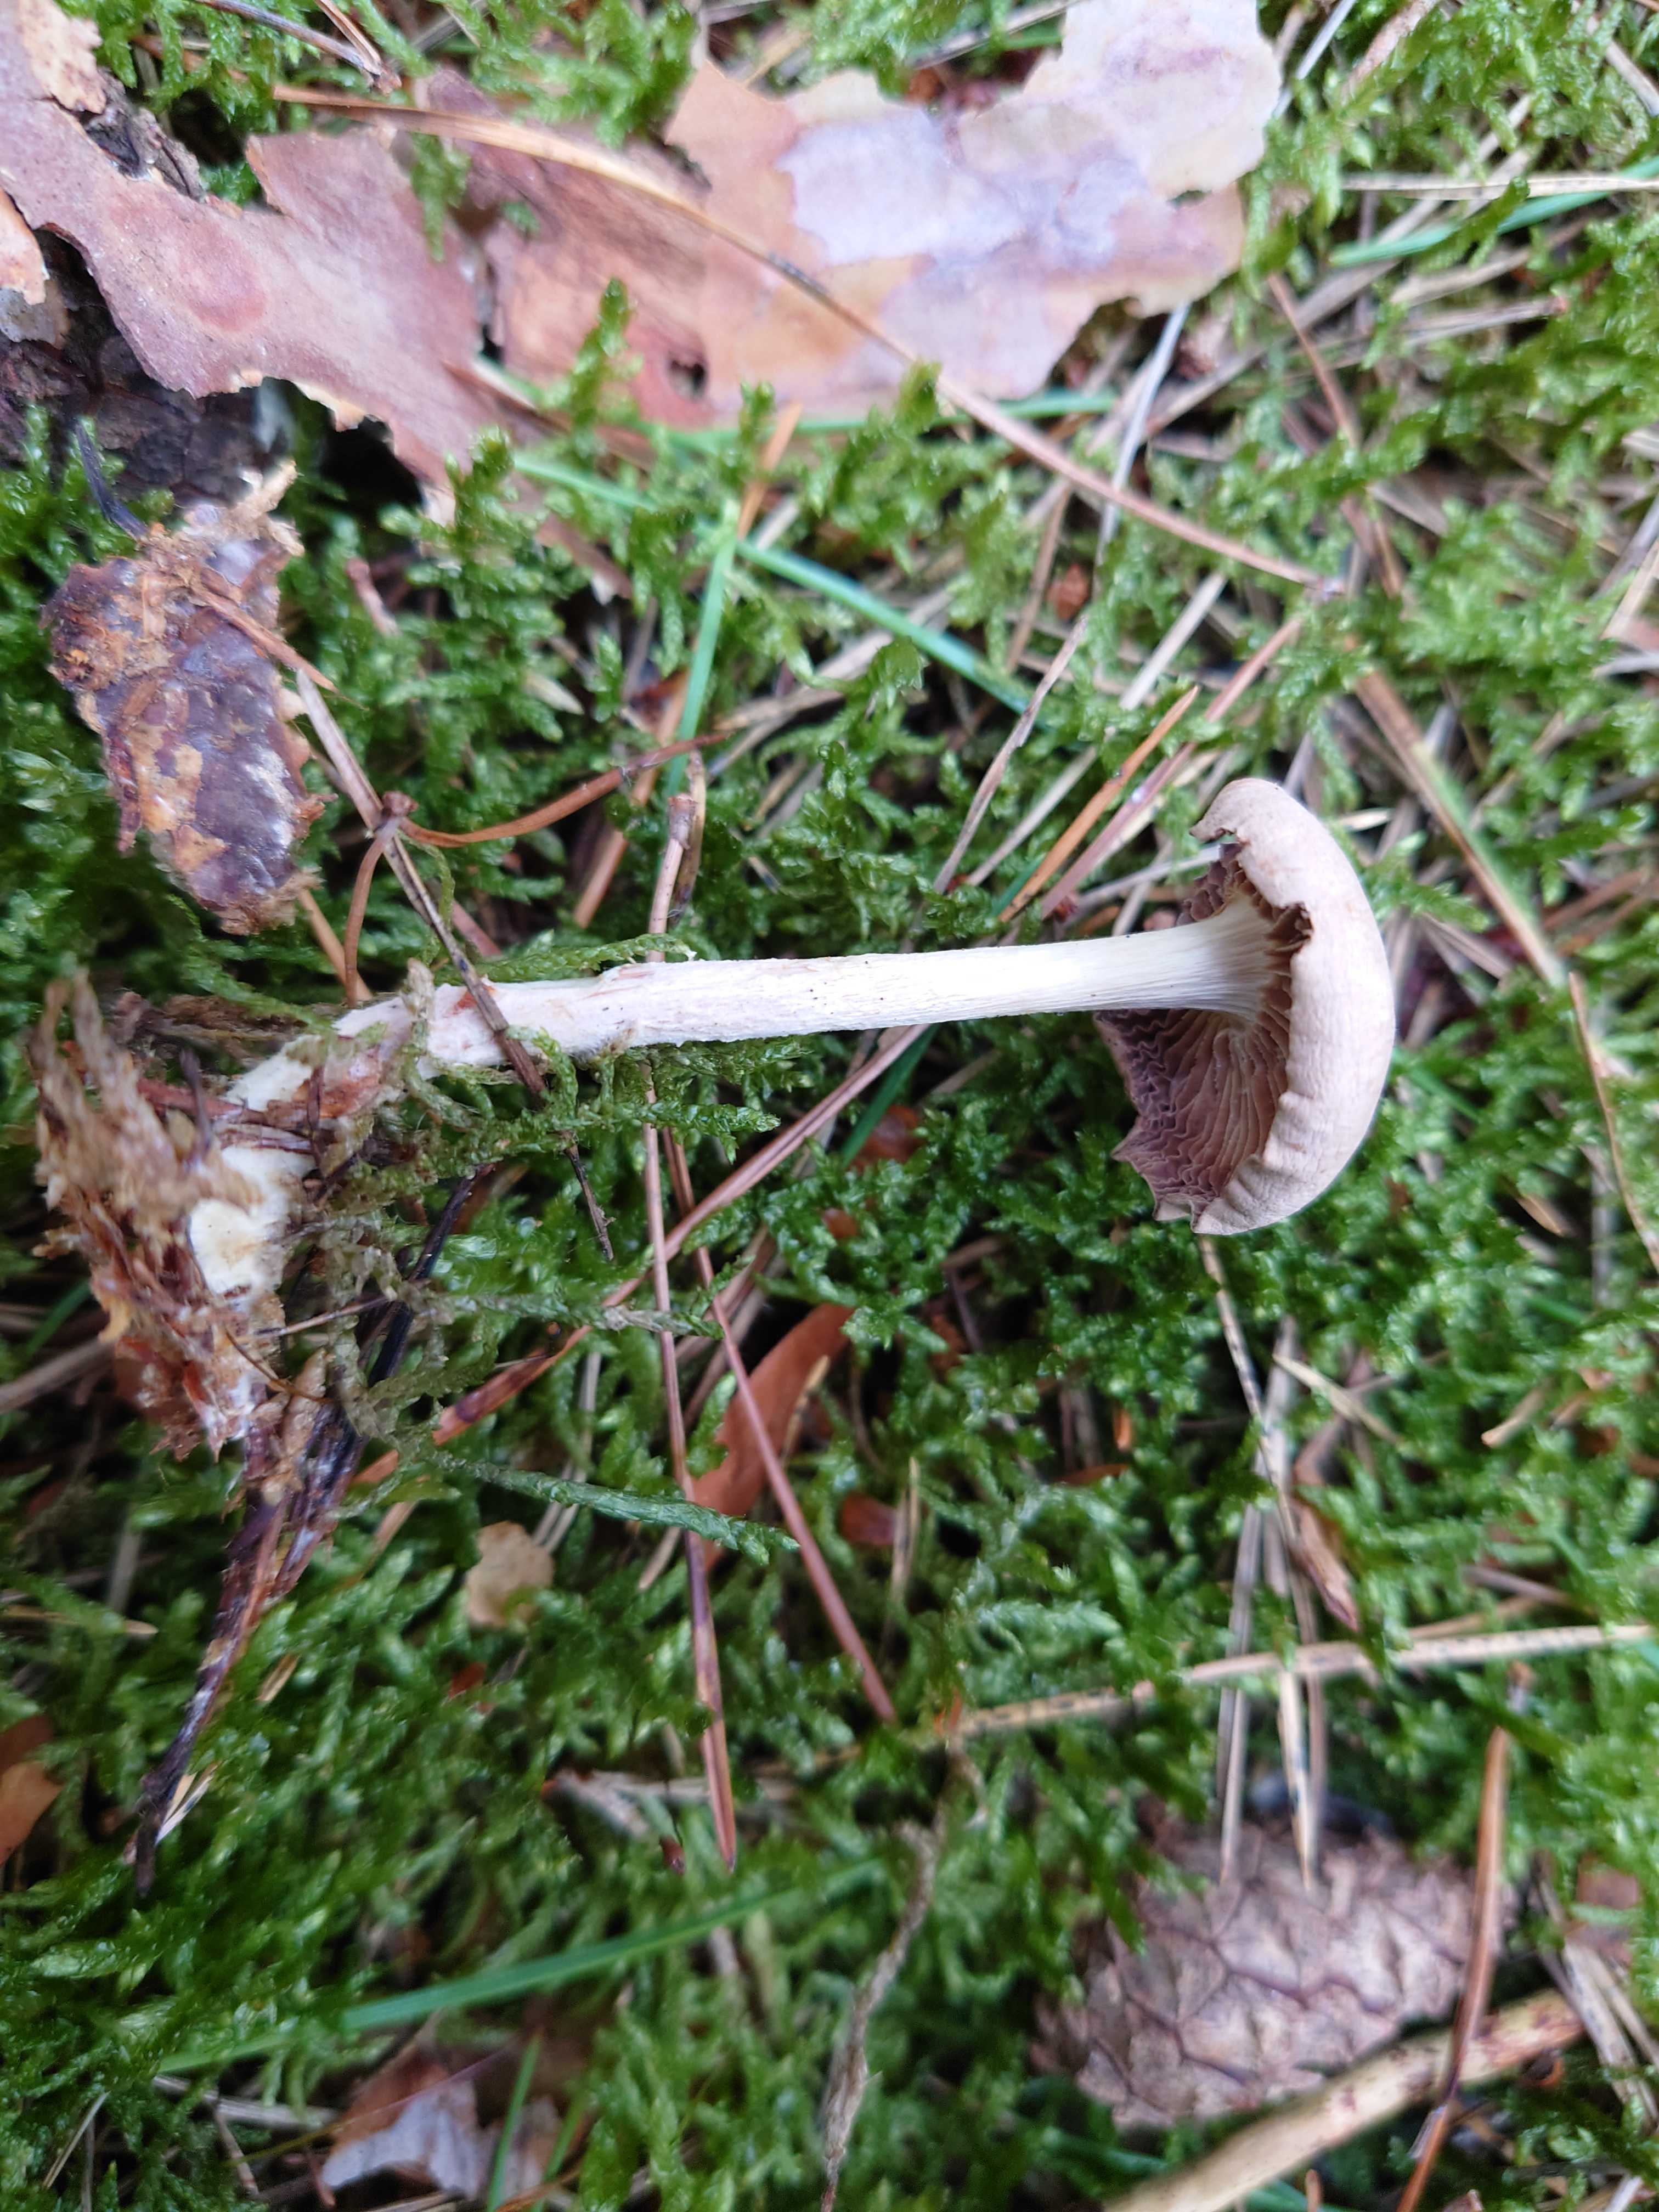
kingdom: Fungi
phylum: Basidiomycota
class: Agaricomycetes
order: Agaricales
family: Omphalotaceae
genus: Collybiopsis
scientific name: Collybiopsis peronata
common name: bestøvlet fladhat
